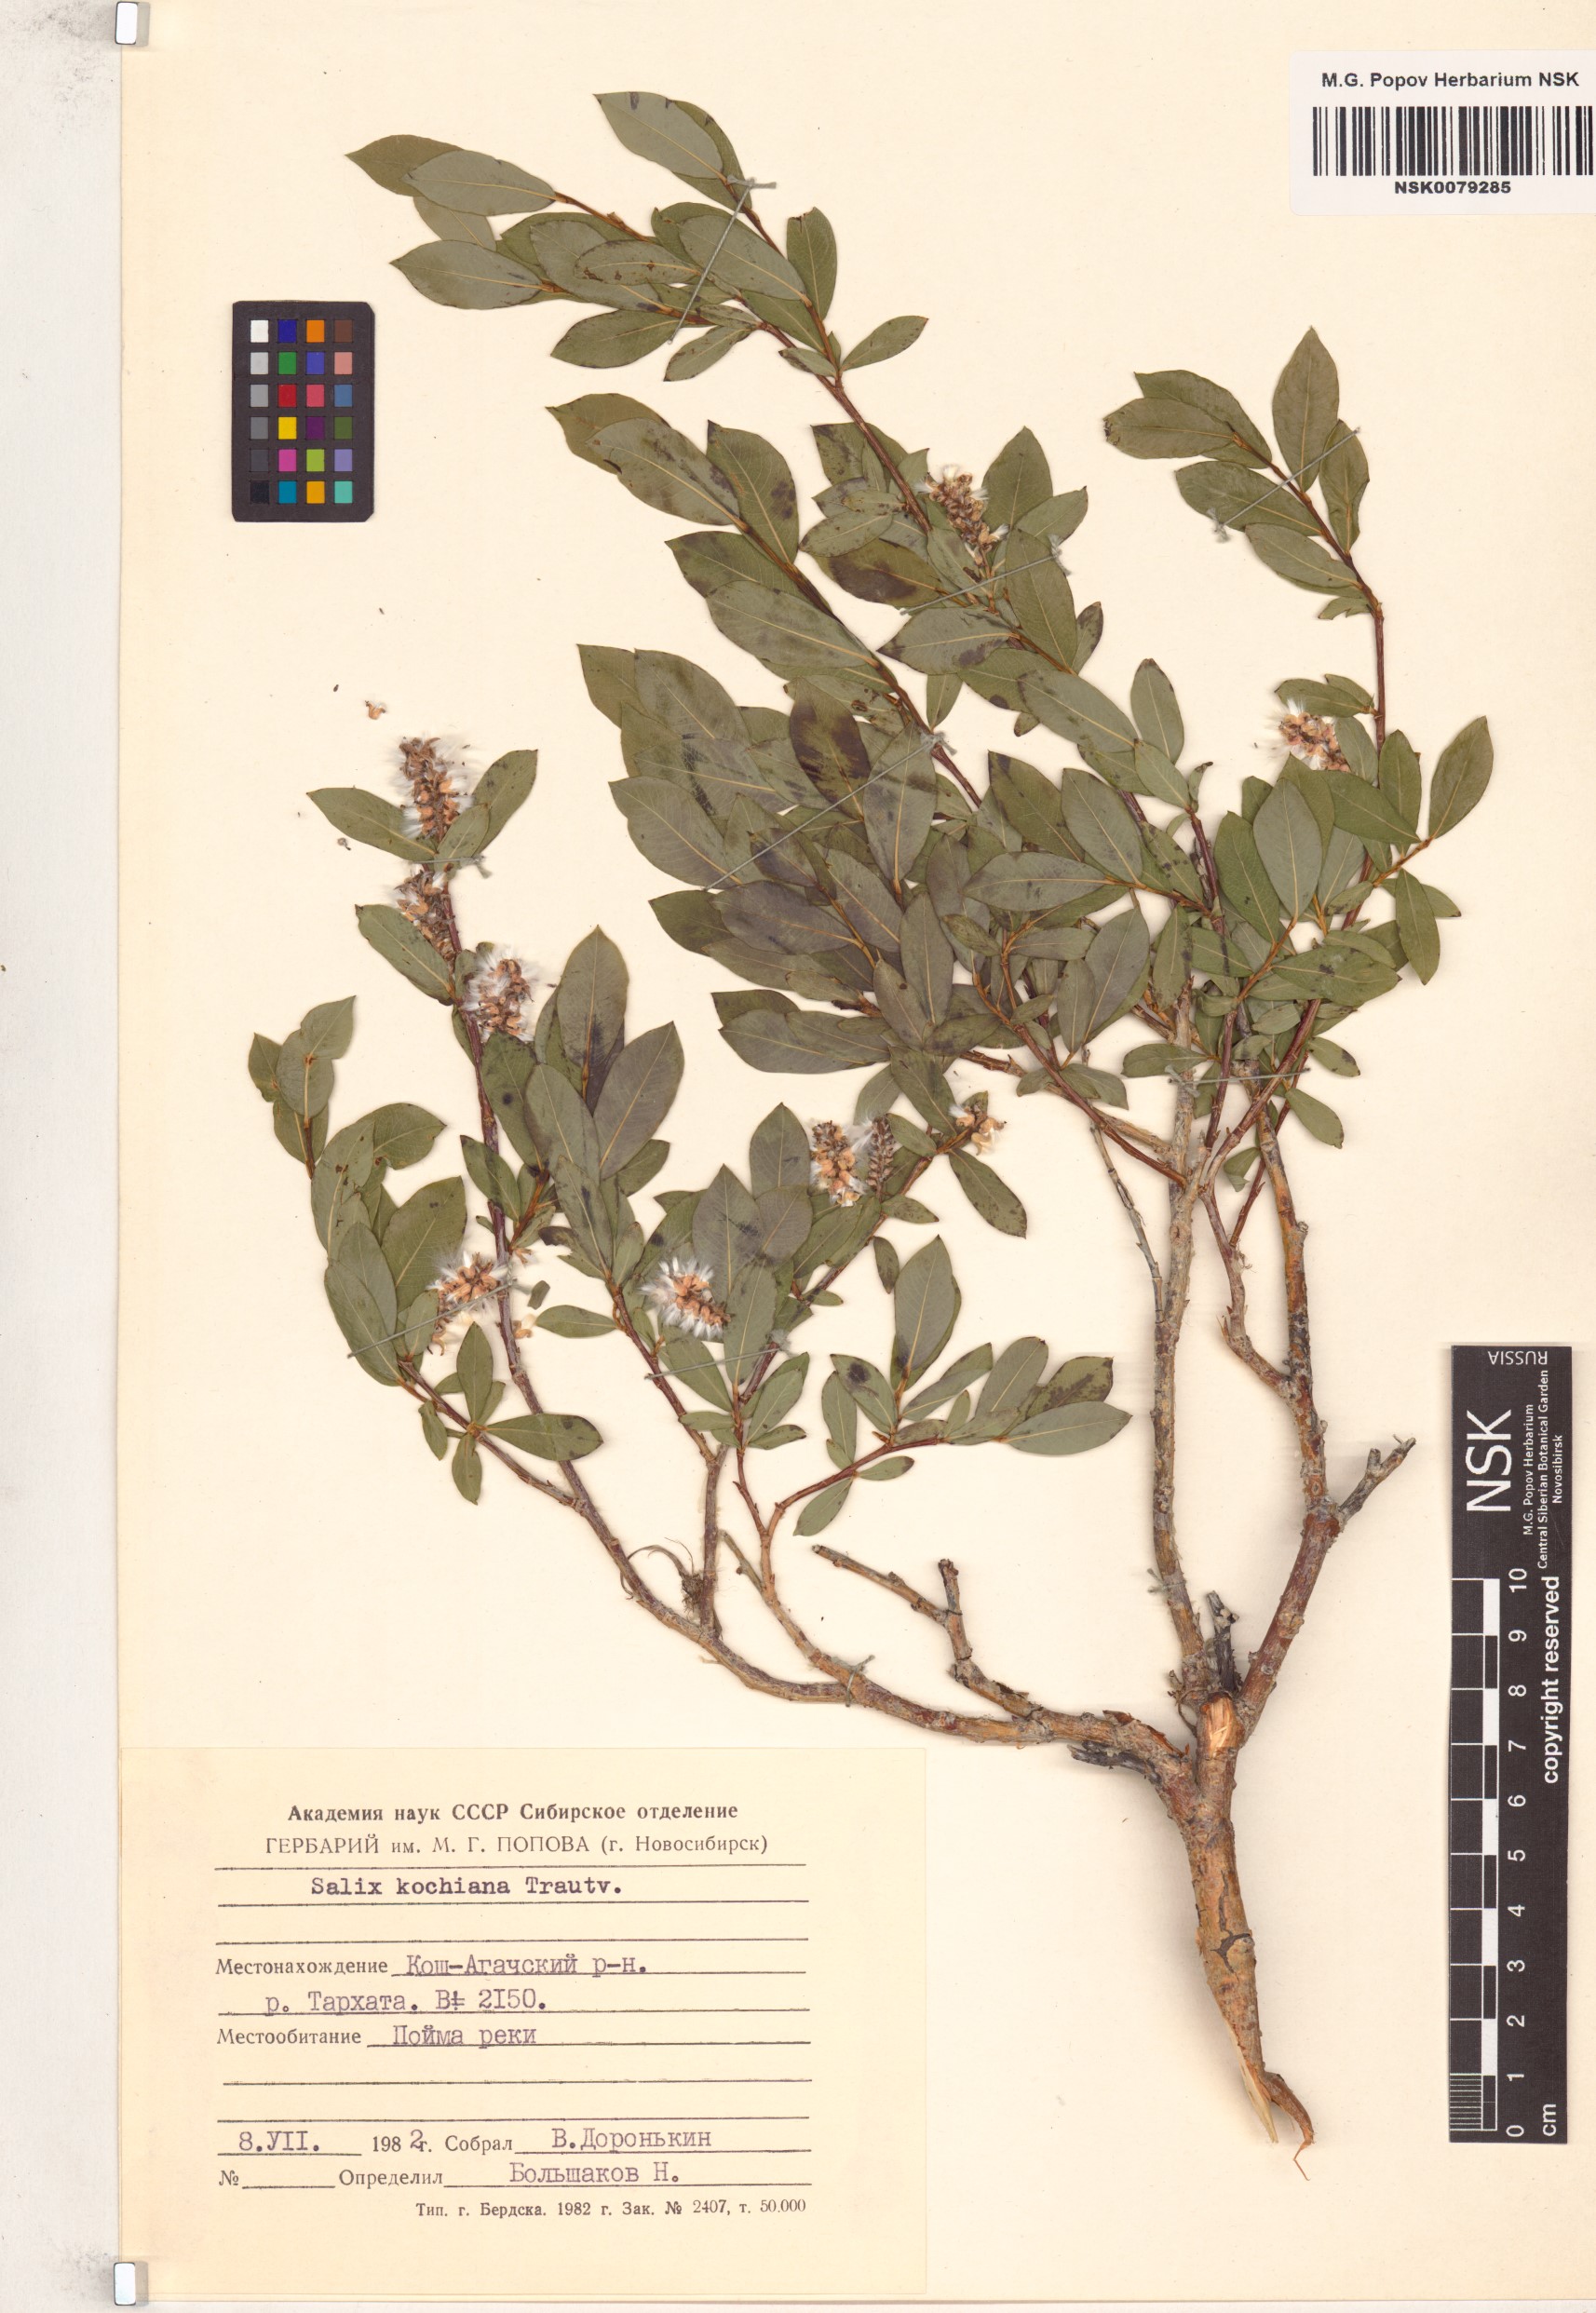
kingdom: Plantae
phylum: Tracheophyta
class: Magnoliopsida
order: Malpighiales
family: Salicaceae
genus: Salix
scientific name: Salix kochiana
